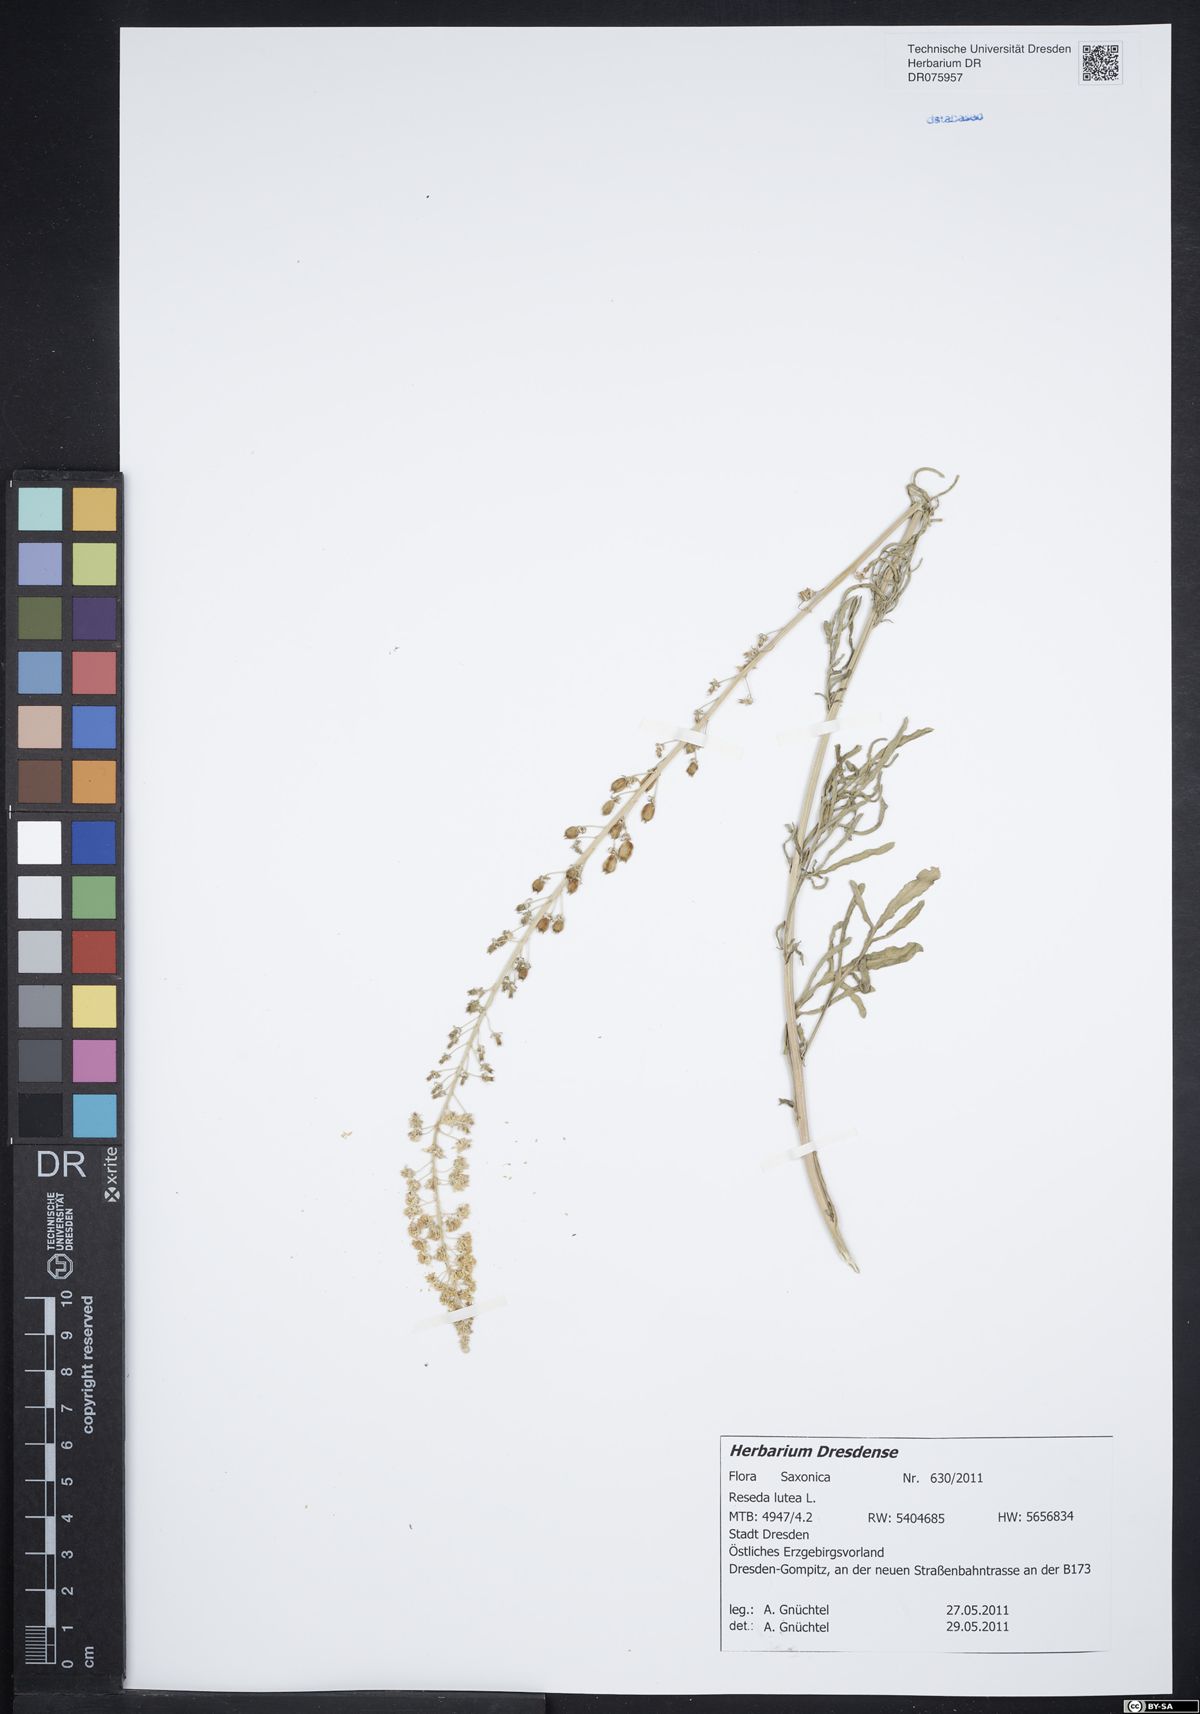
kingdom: Plantae
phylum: Tracheophyta
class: Magnoliopsida
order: Brassicales
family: Resedaceae
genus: Reseda
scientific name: Reseda lutea
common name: Wild mignonette
